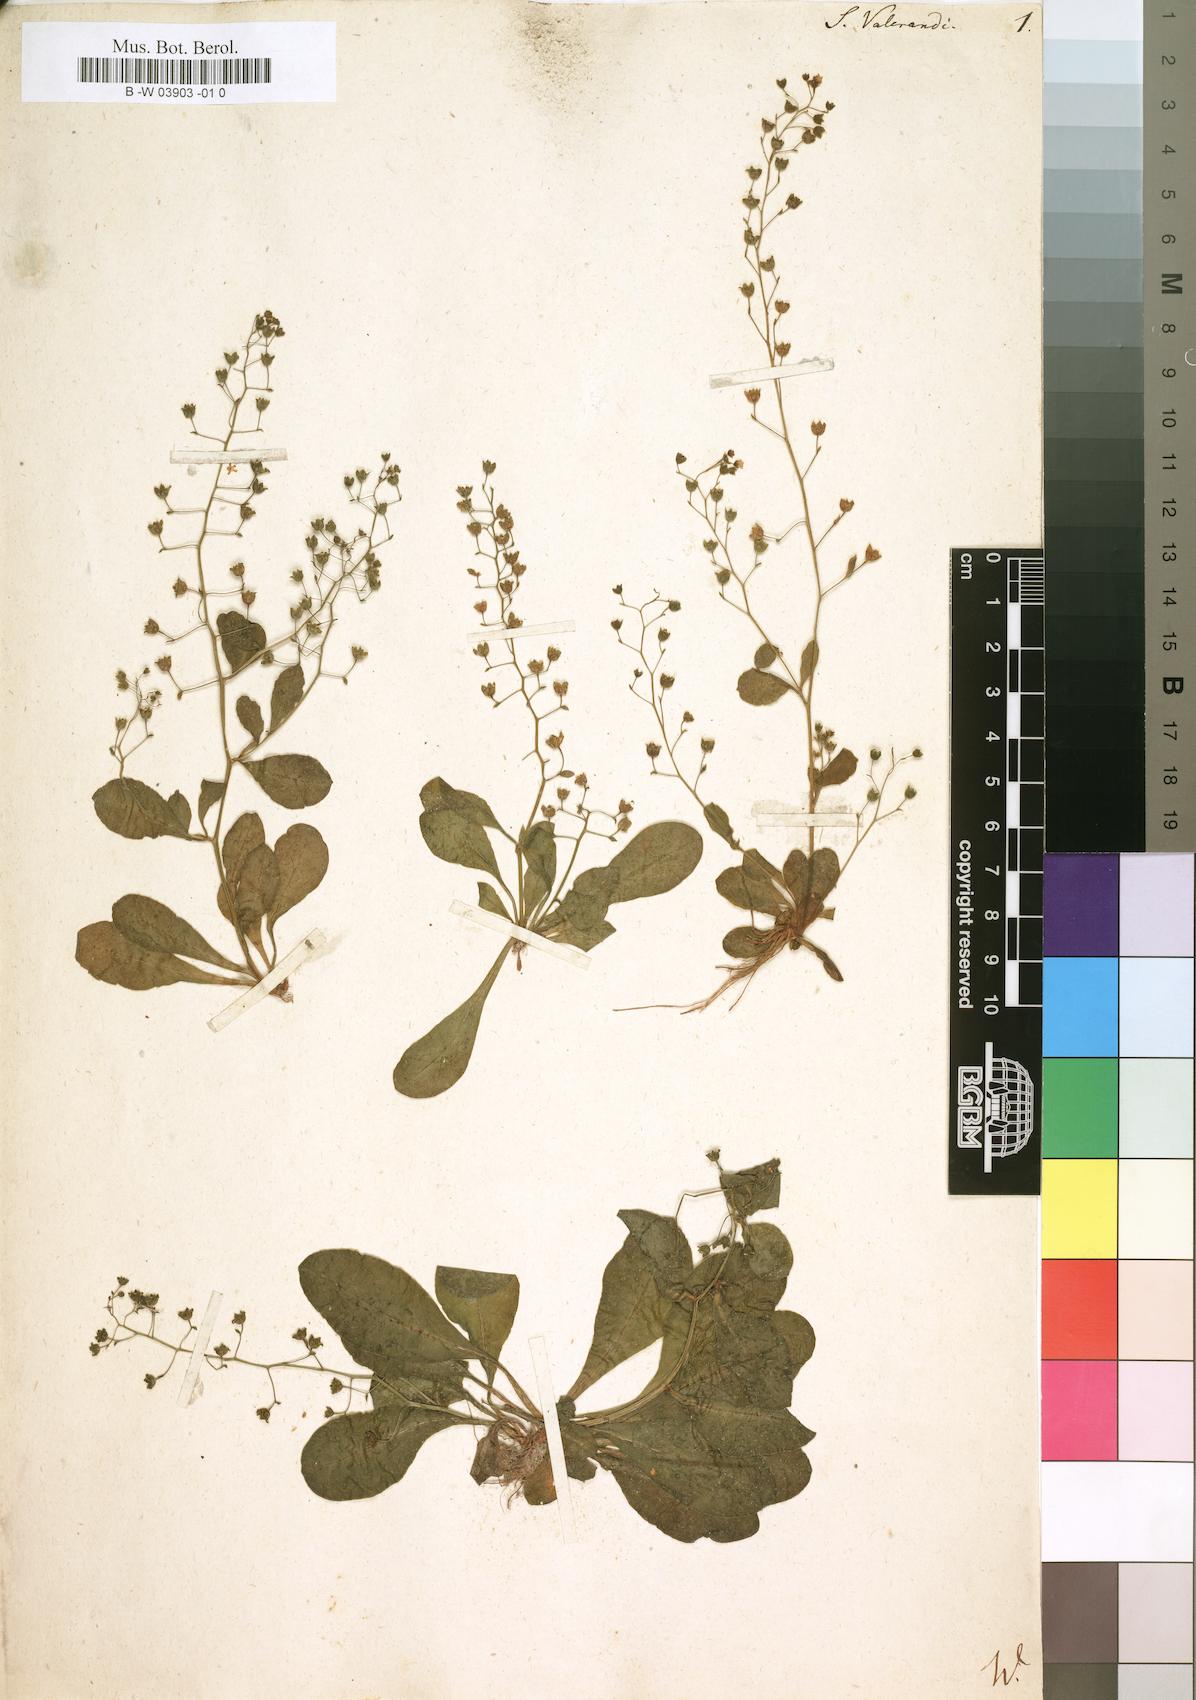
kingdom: Plantae
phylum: Tracheophyta
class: Magnoliopsida
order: Ericales
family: Primulaceae
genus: Samolus
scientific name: Samolus valerandi
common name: Brookweed
